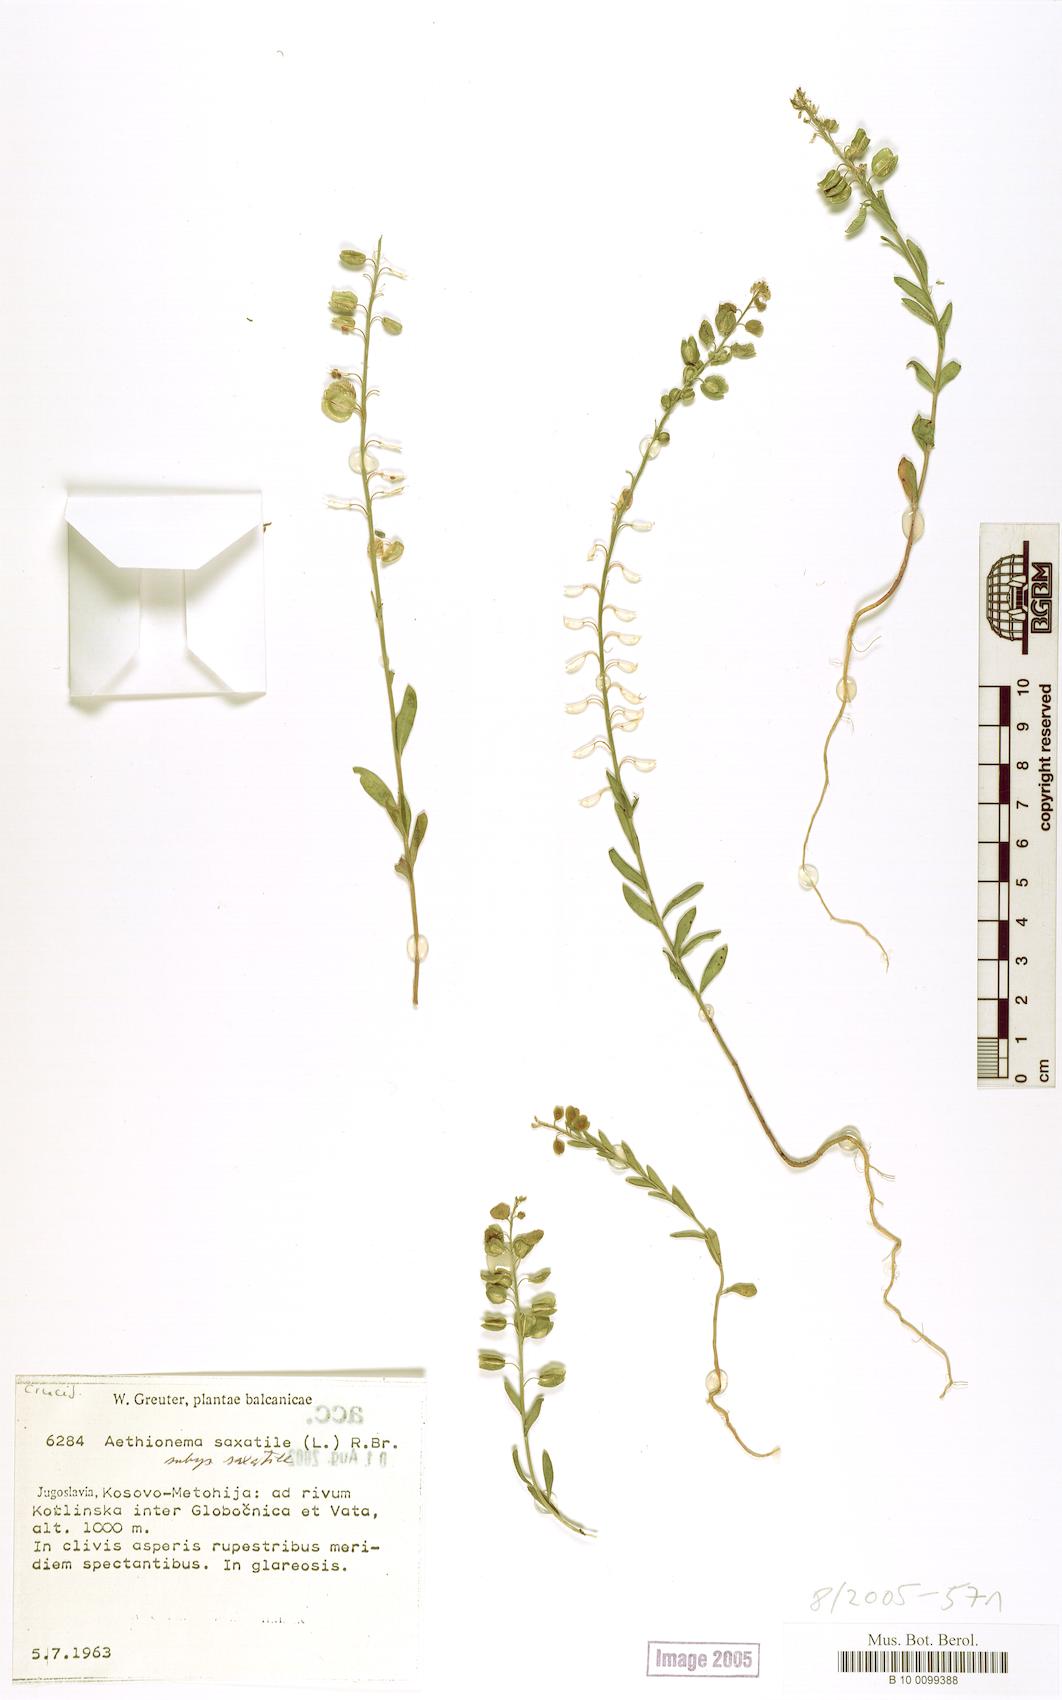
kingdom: Plantae
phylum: Tracheophyta
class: Magnoliopsida
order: Brassicales
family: Brassicaceae
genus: Aethionema
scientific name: Aethionema saxatile
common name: Burnt candytuft
